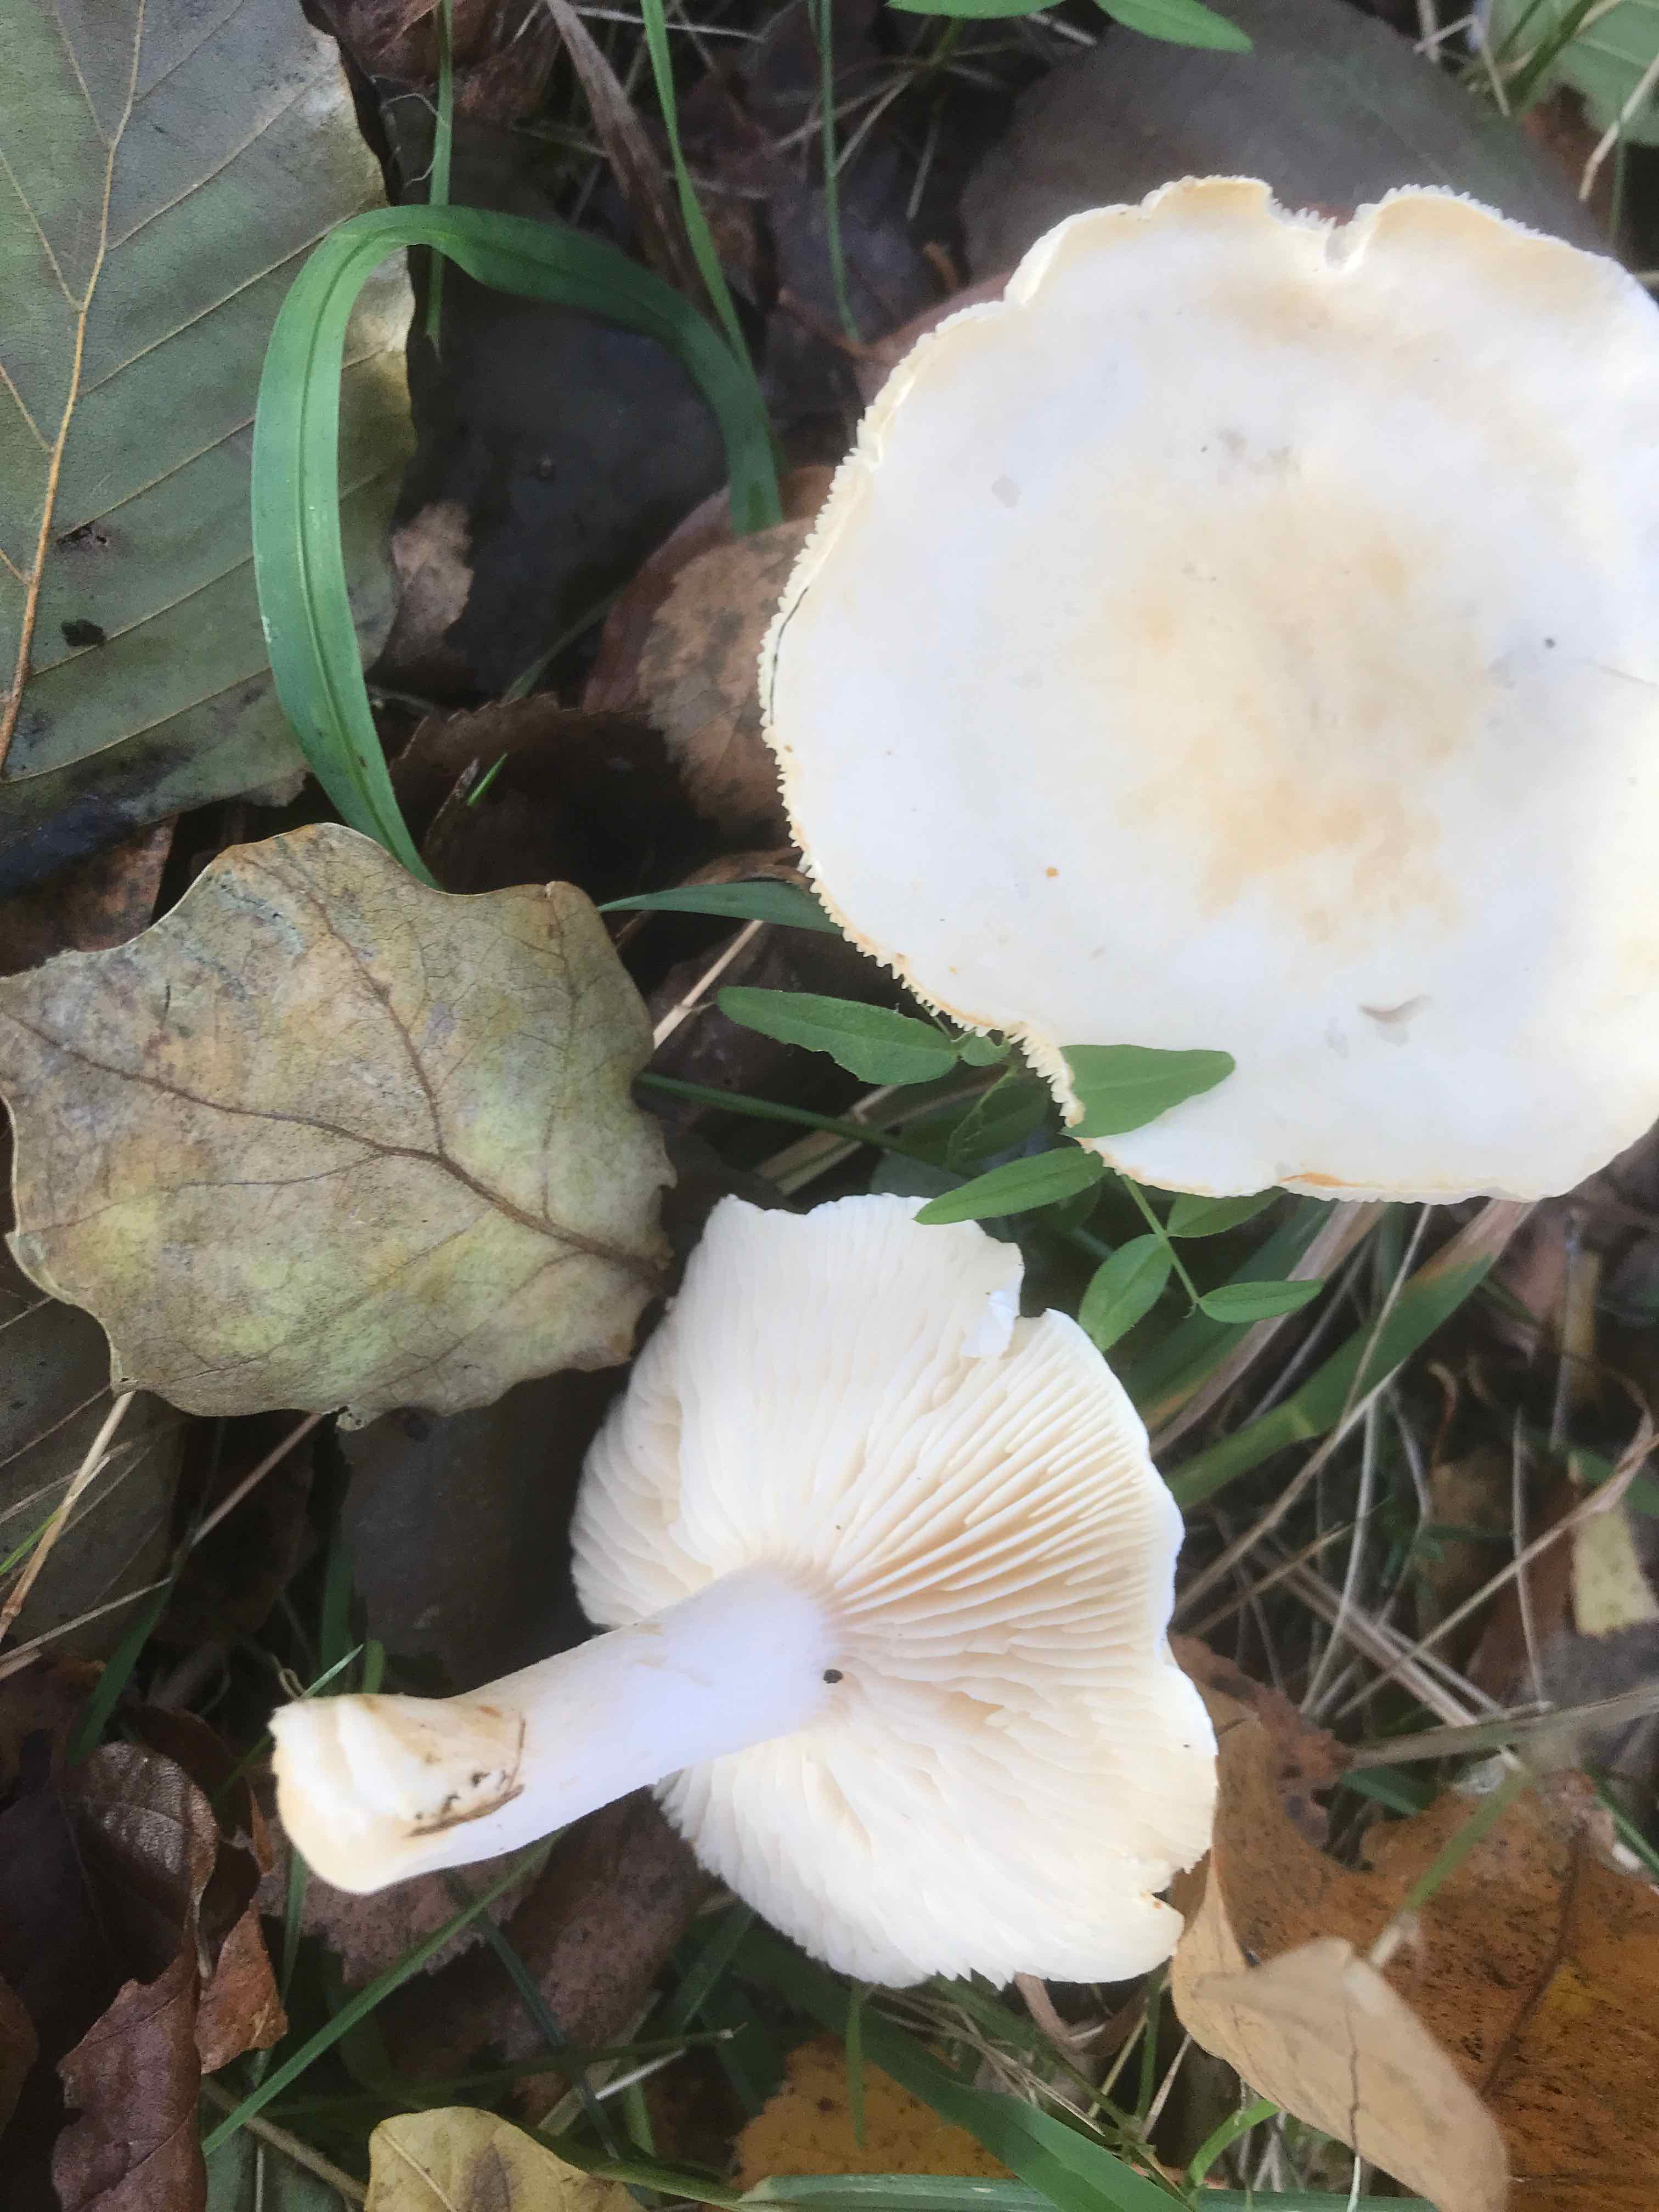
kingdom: Fungi
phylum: Basidiomycota
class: Agaricomycetes
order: Agaricales
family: Tricholomataceae
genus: Tricholoma
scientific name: Tricholoma stiparophyllum
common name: hvid ridderhat
